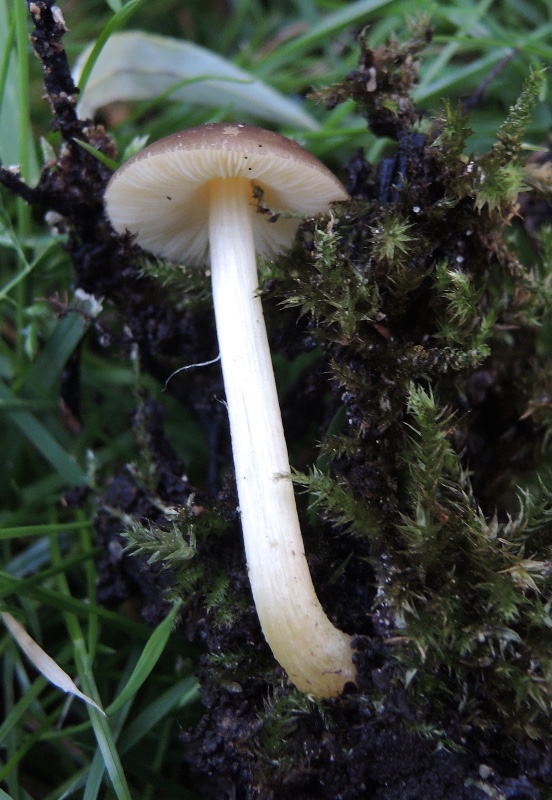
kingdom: Fungi
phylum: Basidiomycota
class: Agaricomycetes
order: Agaricales
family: Pluteaceae
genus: Pluteus
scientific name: Pluteus romellii
